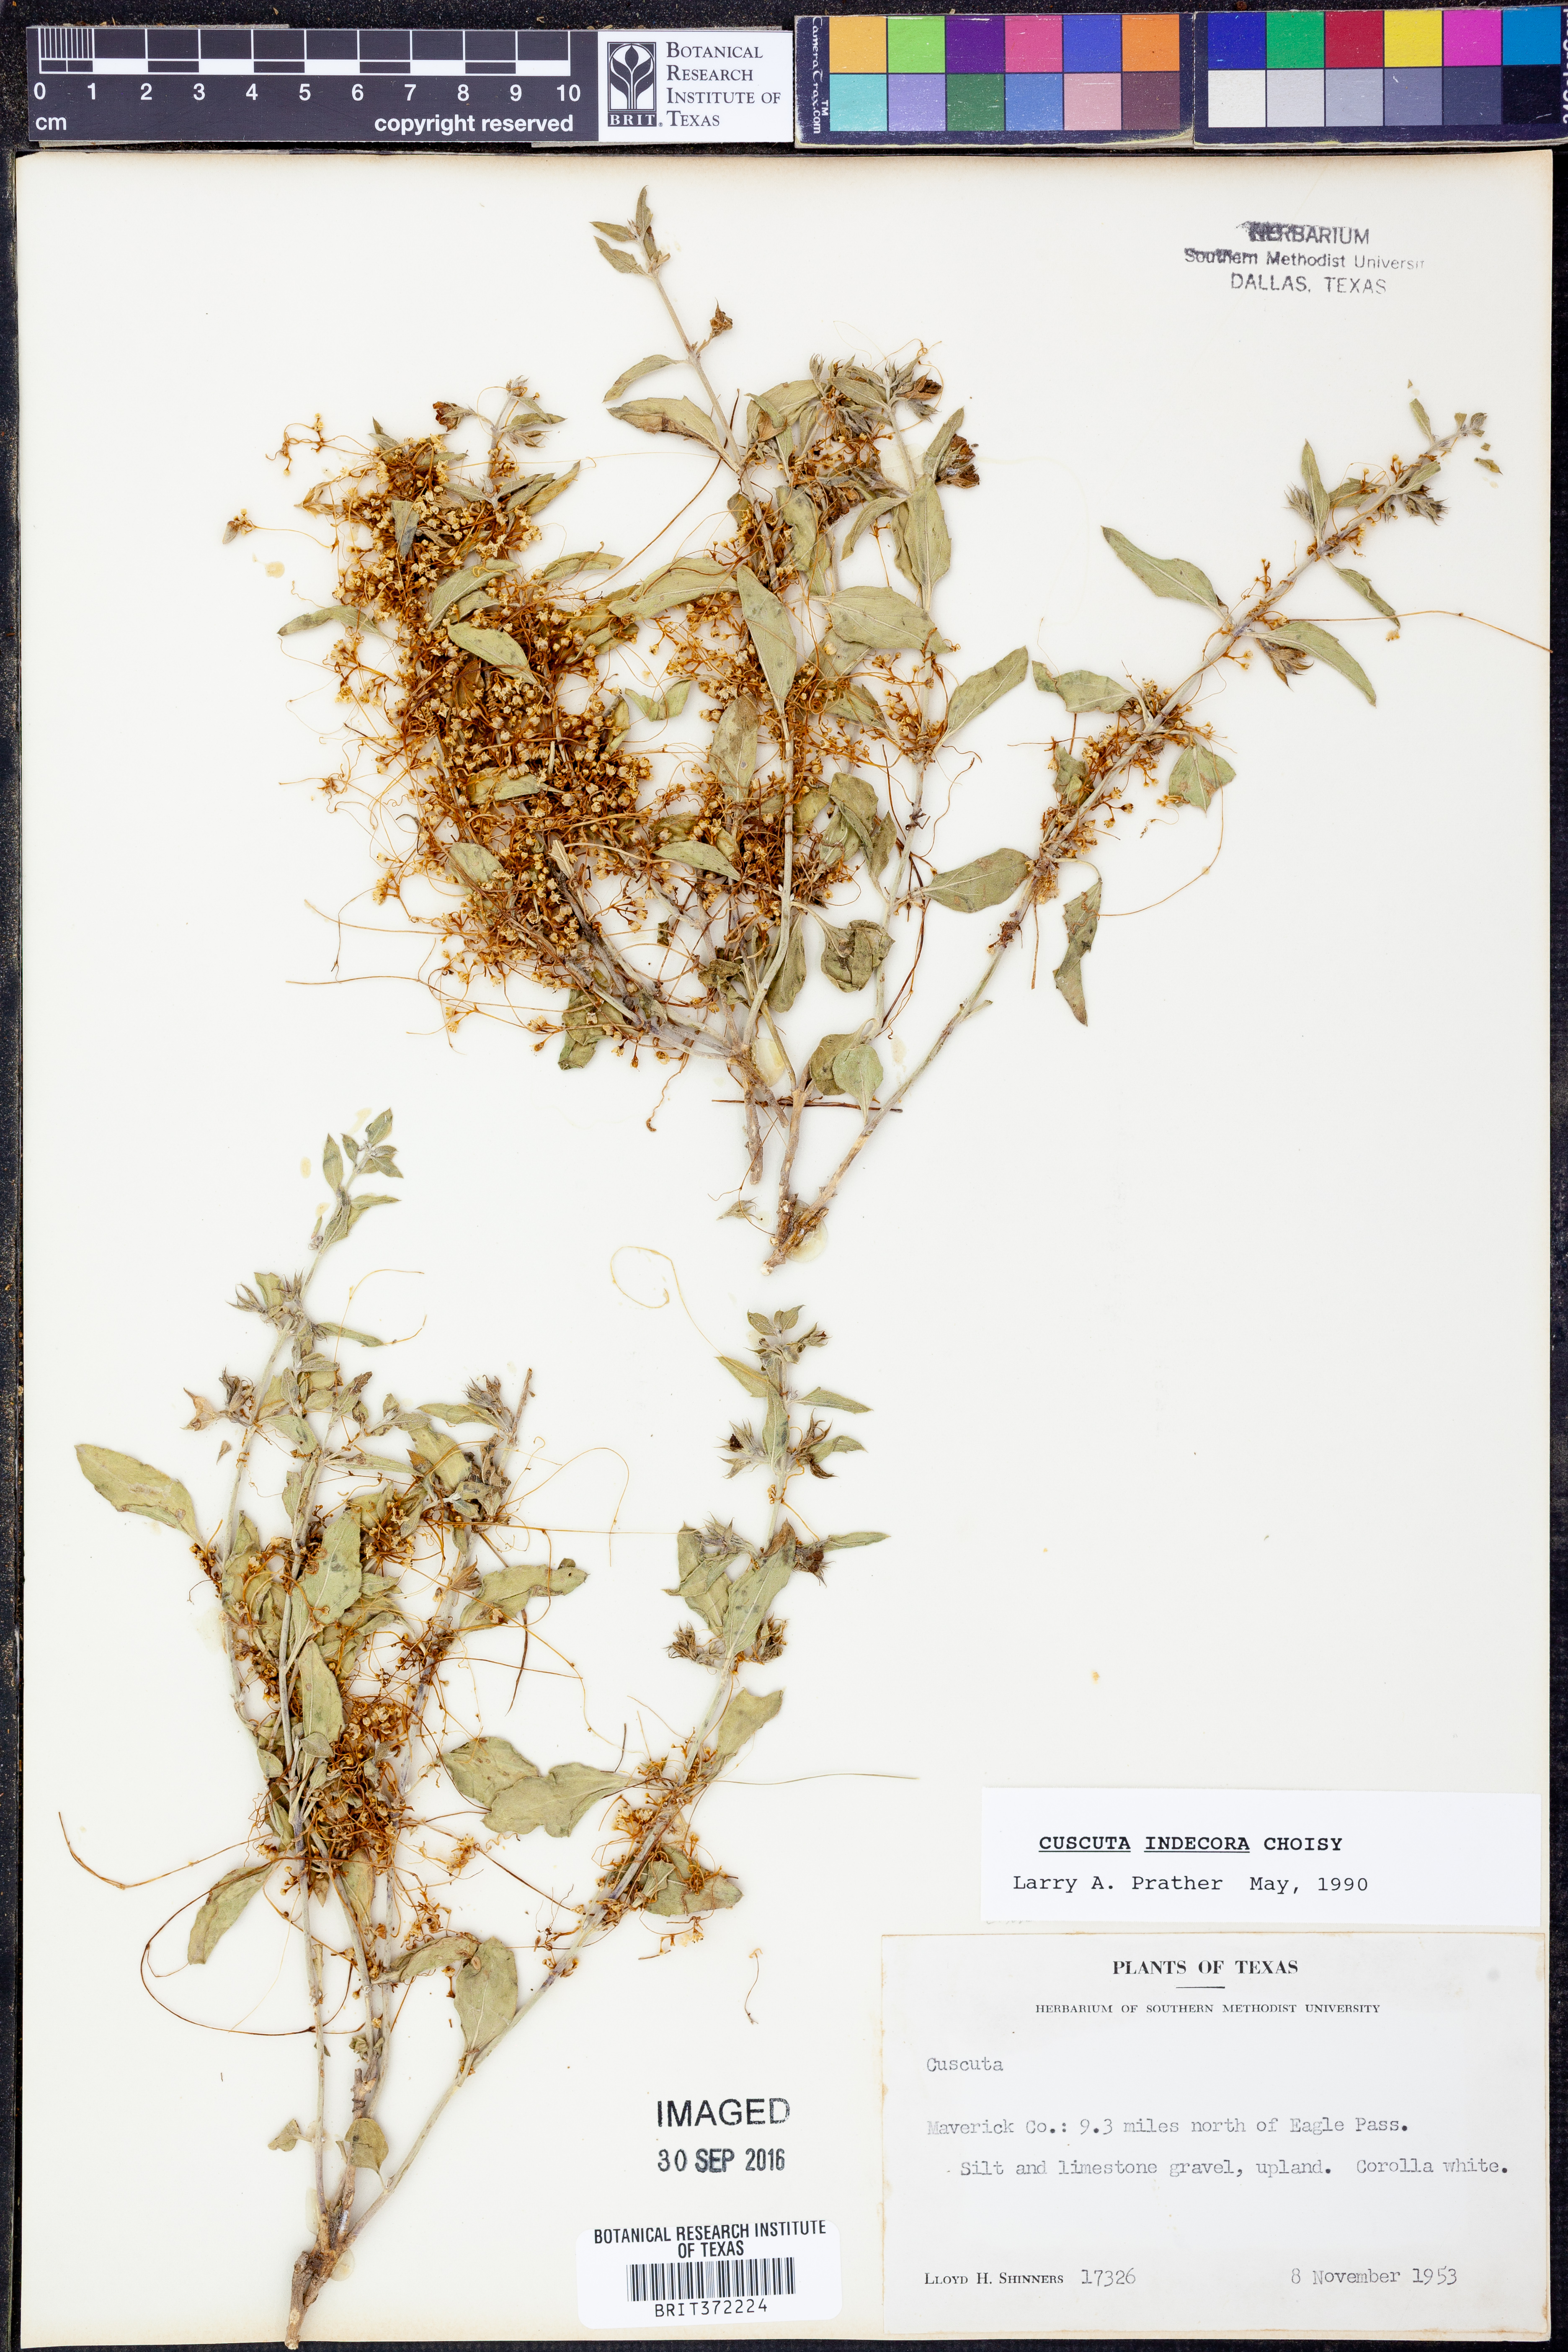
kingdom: Plantae
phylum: Tracheophyta
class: Magnoliopsida
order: Solanales
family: Convolvulaceae
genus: Cuscuta
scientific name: Cuscuta indecora
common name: Large-seed dodder
